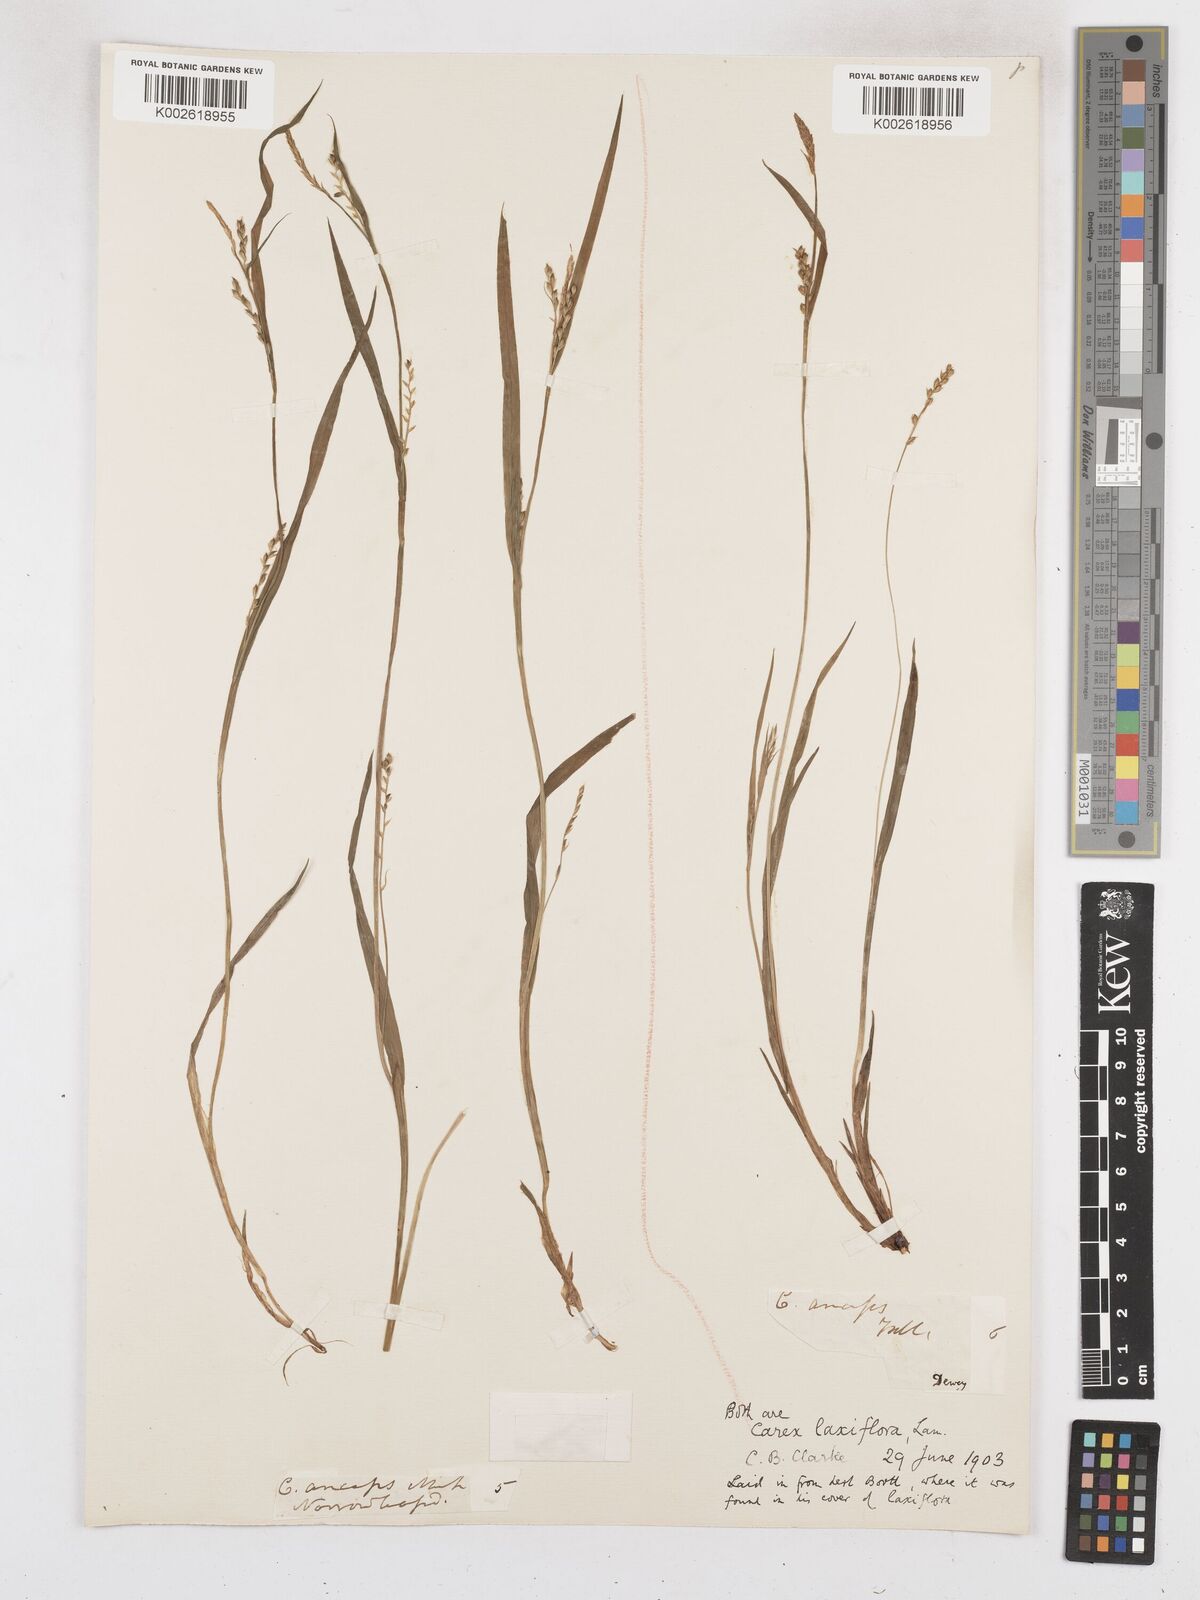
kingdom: Plantae
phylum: Tracheophyta
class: Liliopsida
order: Poales
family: Cyperaceae
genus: Carex
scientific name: Carex laxiflora
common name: Beech wood sedge
